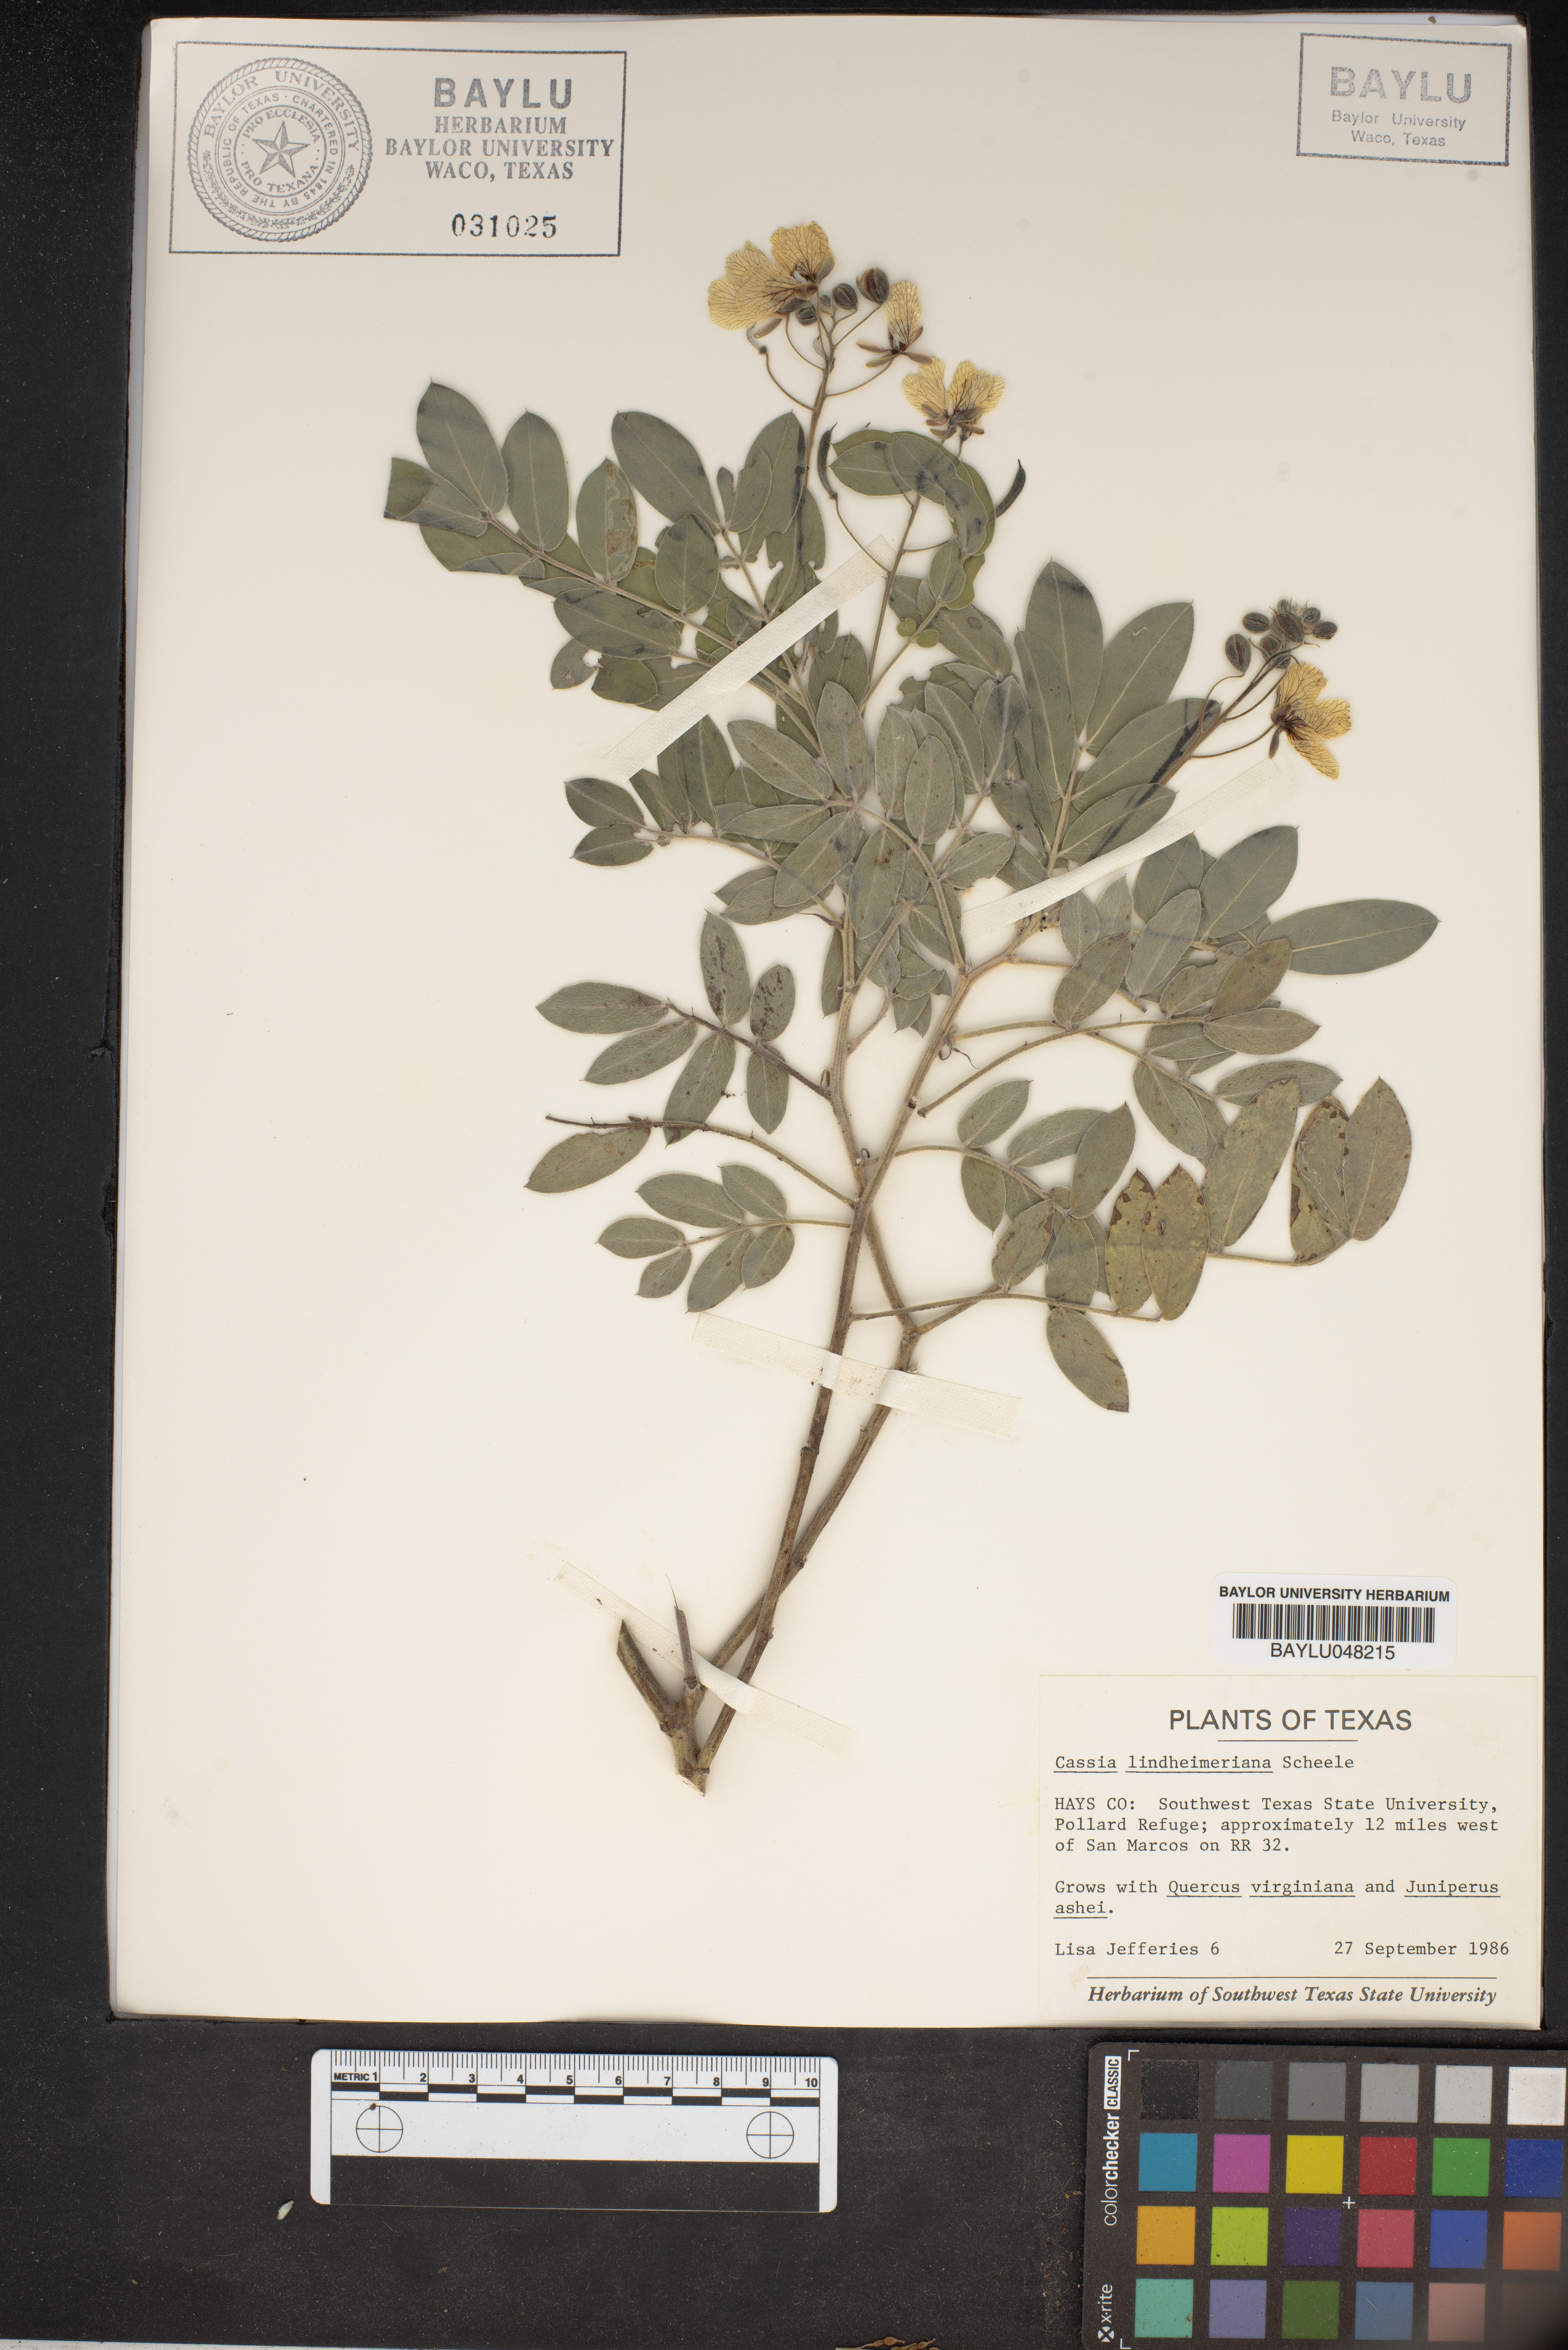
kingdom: Plantae
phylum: Tracheophyta
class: Magnoliopsida
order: Fabales
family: Fabaceae
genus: Senna
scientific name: Senna lindheimeriana
